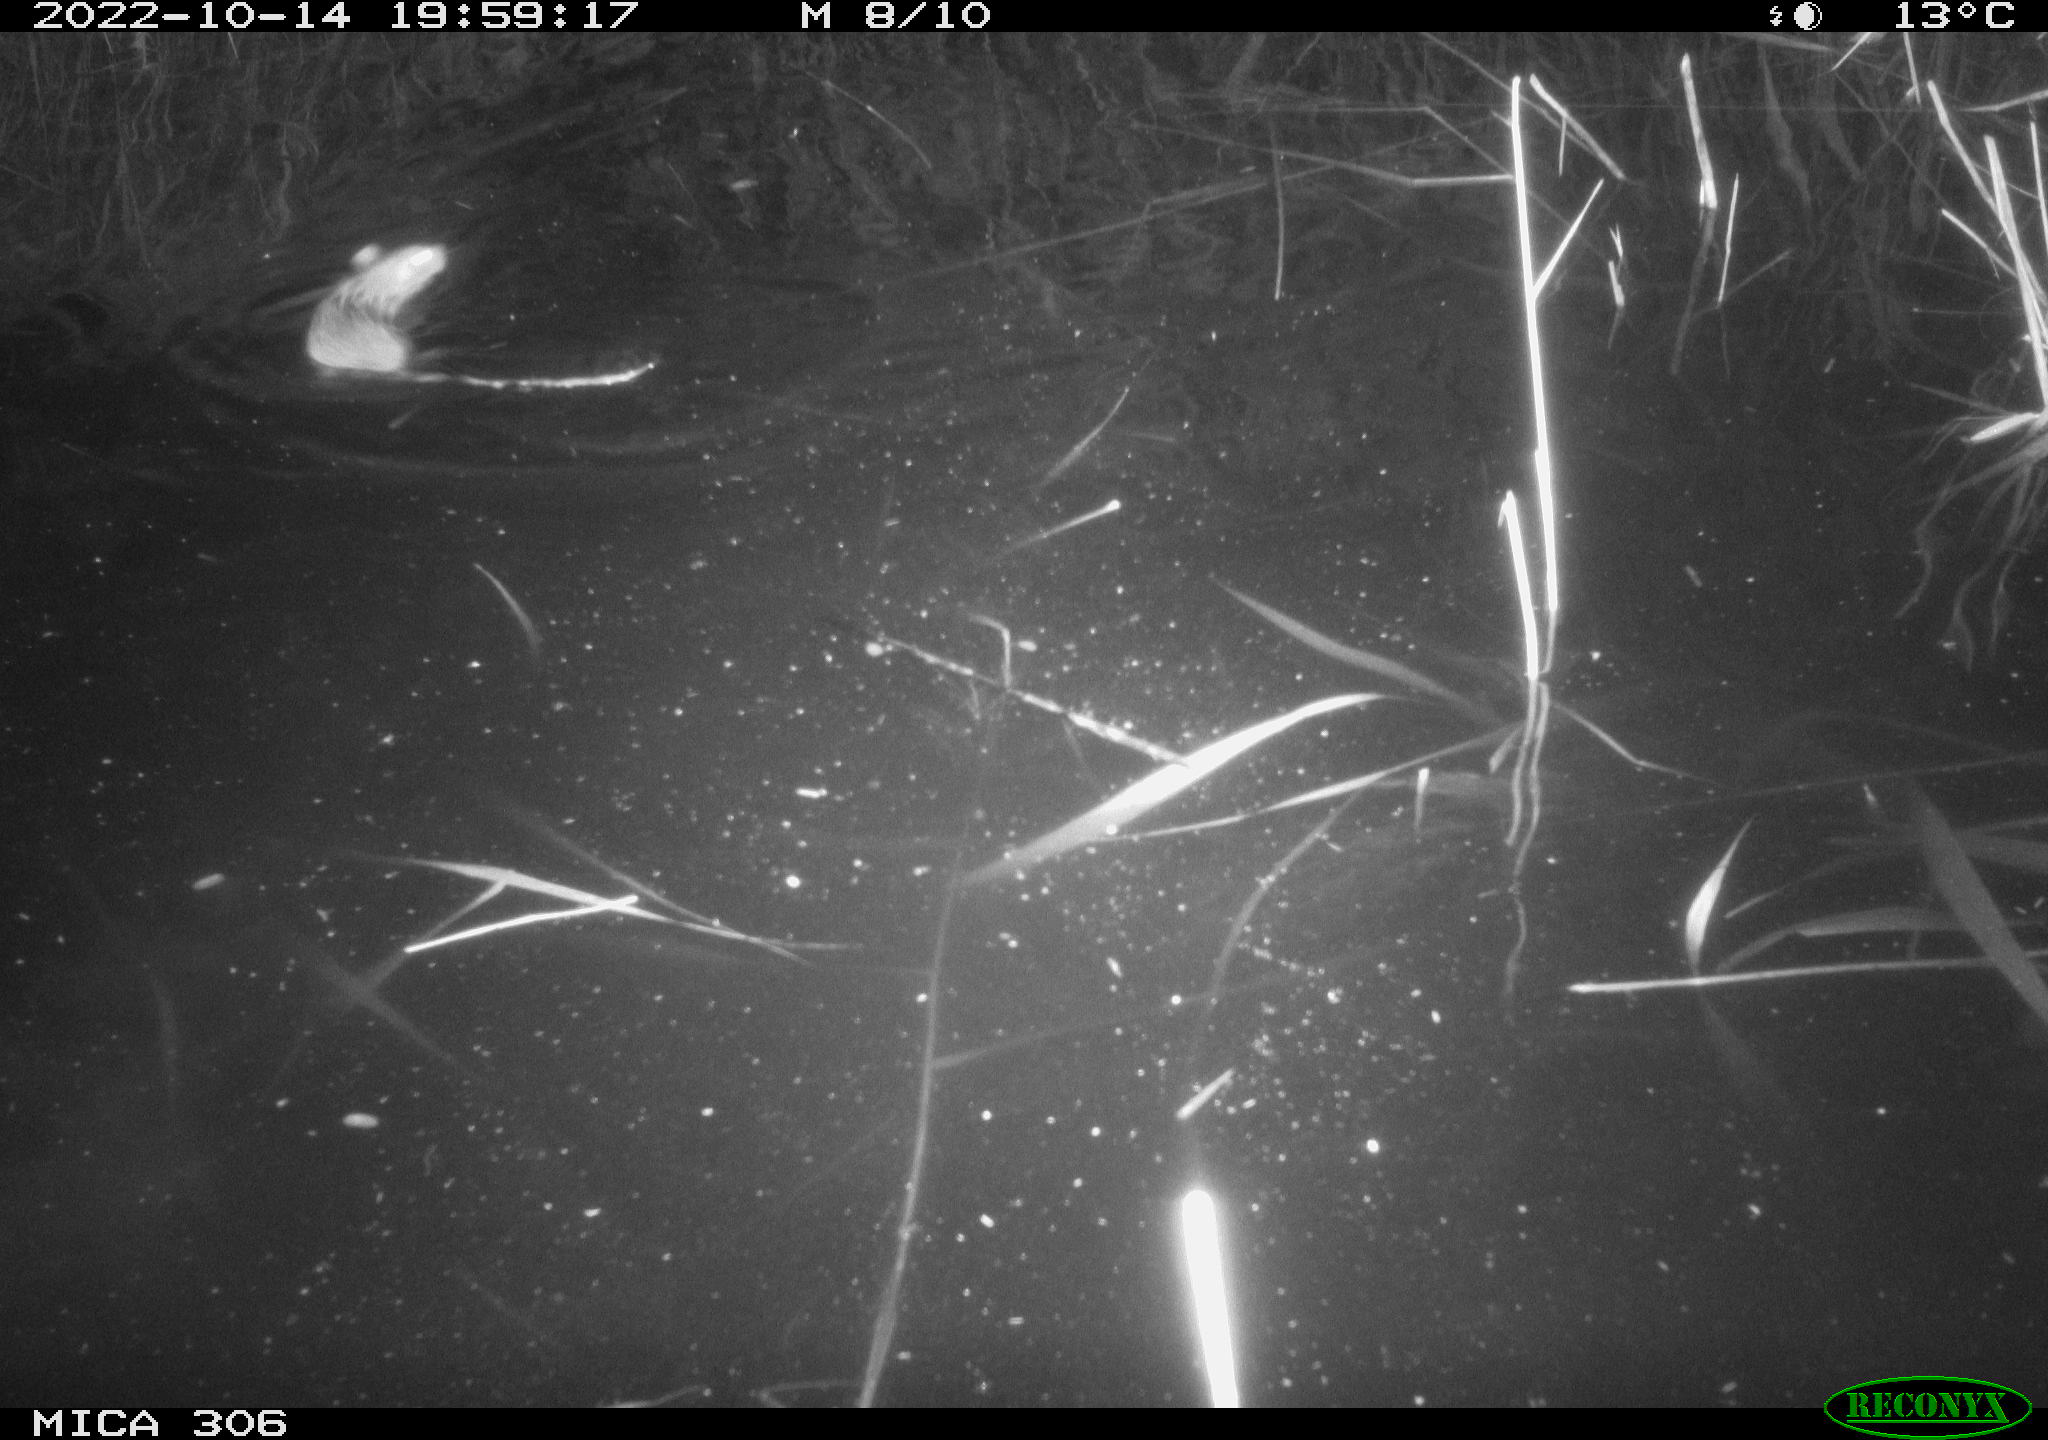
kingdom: Animalia
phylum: Chordata
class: Mammalia
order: Rodentia
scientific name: Rodentia
